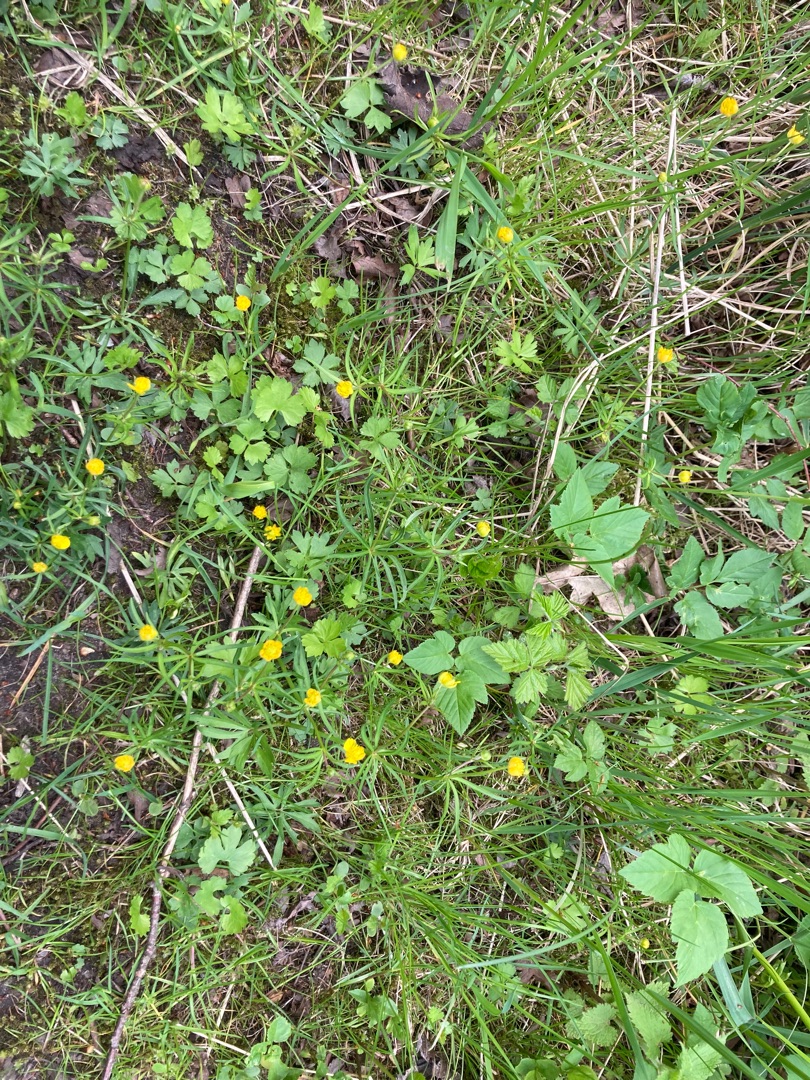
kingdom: Plantae
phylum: Tracheophyta
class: Magnoliopsida
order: Ranunculales
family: Ranunculaceae
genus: Ranunculus
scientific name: Ranunculus auricomus
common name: Nyrebladet ranunkel
